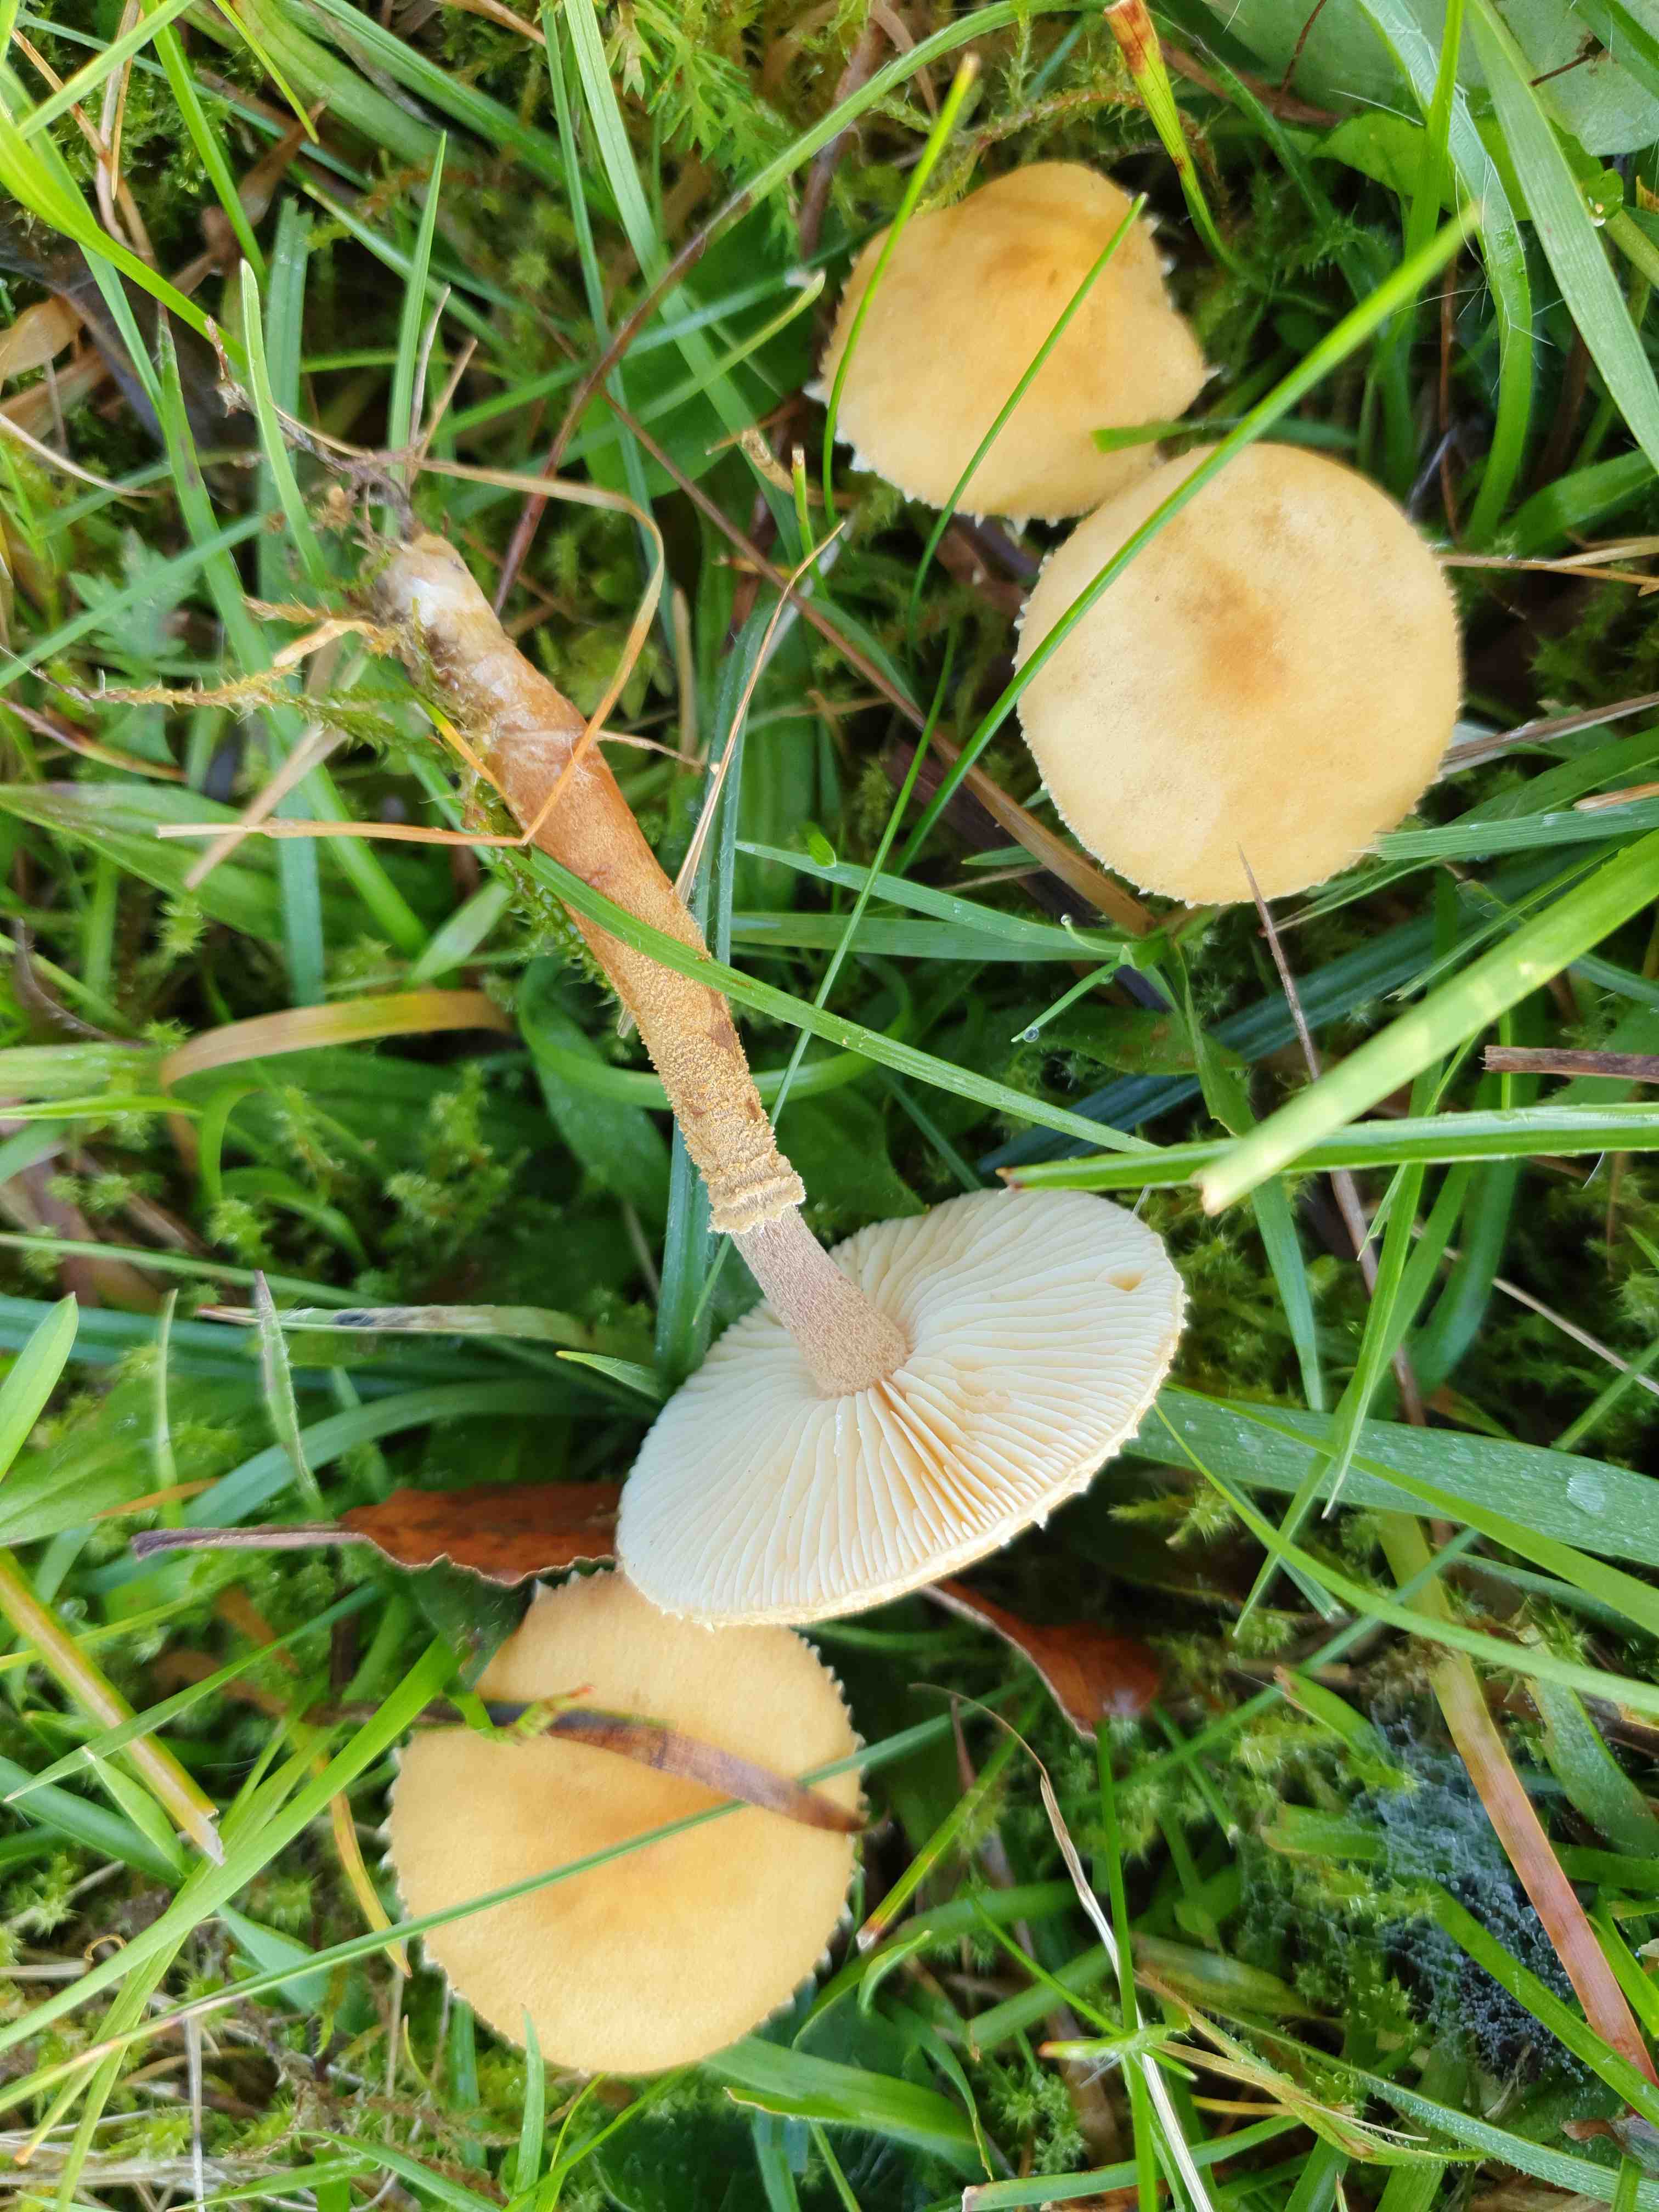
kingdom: Fungi
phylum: Basidiomycota
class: Agaricomycetes
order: Agaricales
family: Tricholomataceae
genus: Cystoderma
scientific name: Cystoderma amianthinum
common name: okkergul grynhat
